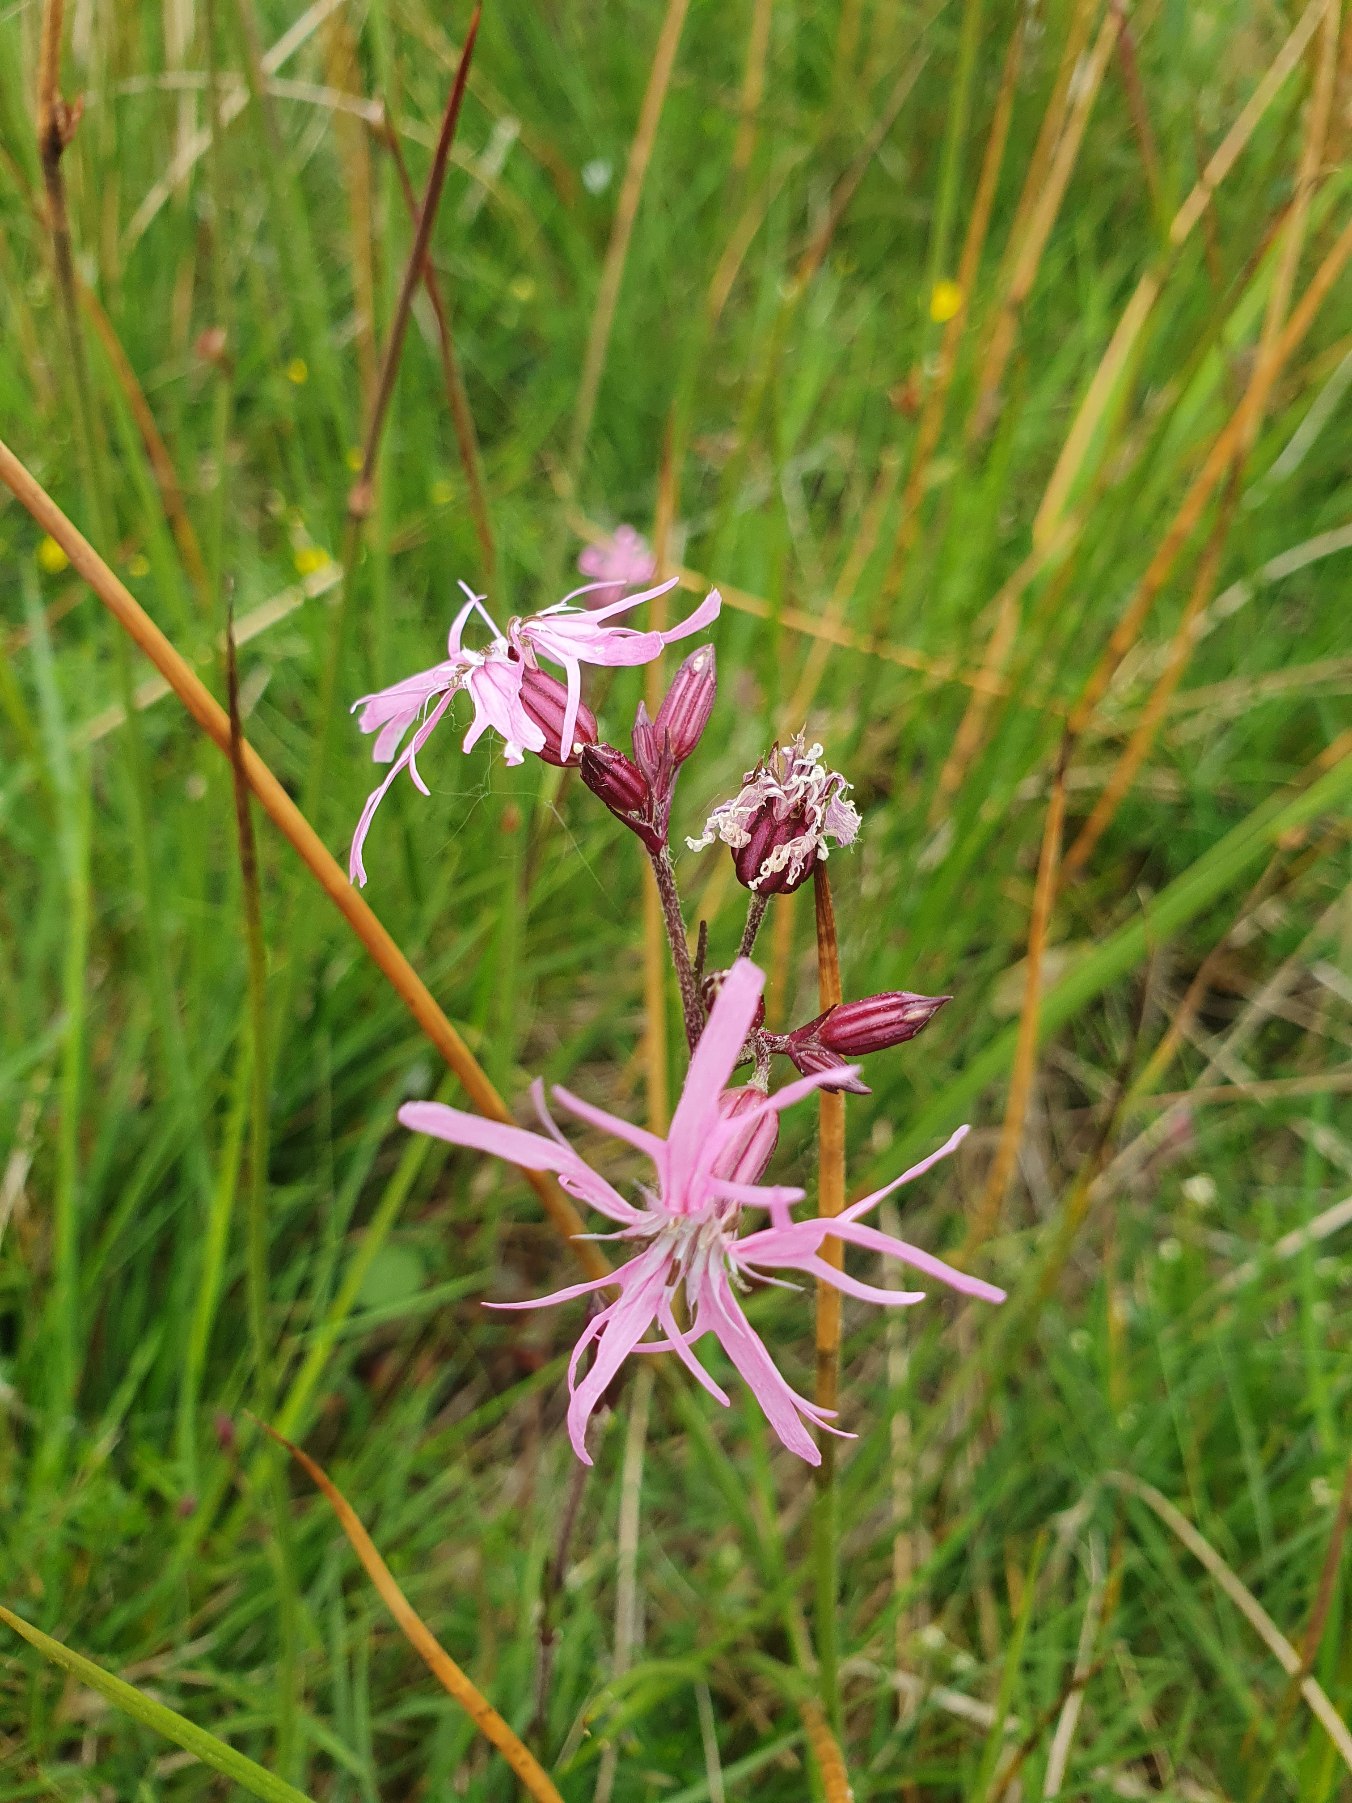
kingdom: Plantae
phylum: Tracheophyta
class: Magnoliopsida
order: Caryophyllales
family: Caryophyllaceae
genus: Silene
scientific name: Silene flos-cuculi
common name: Trævlekrone
